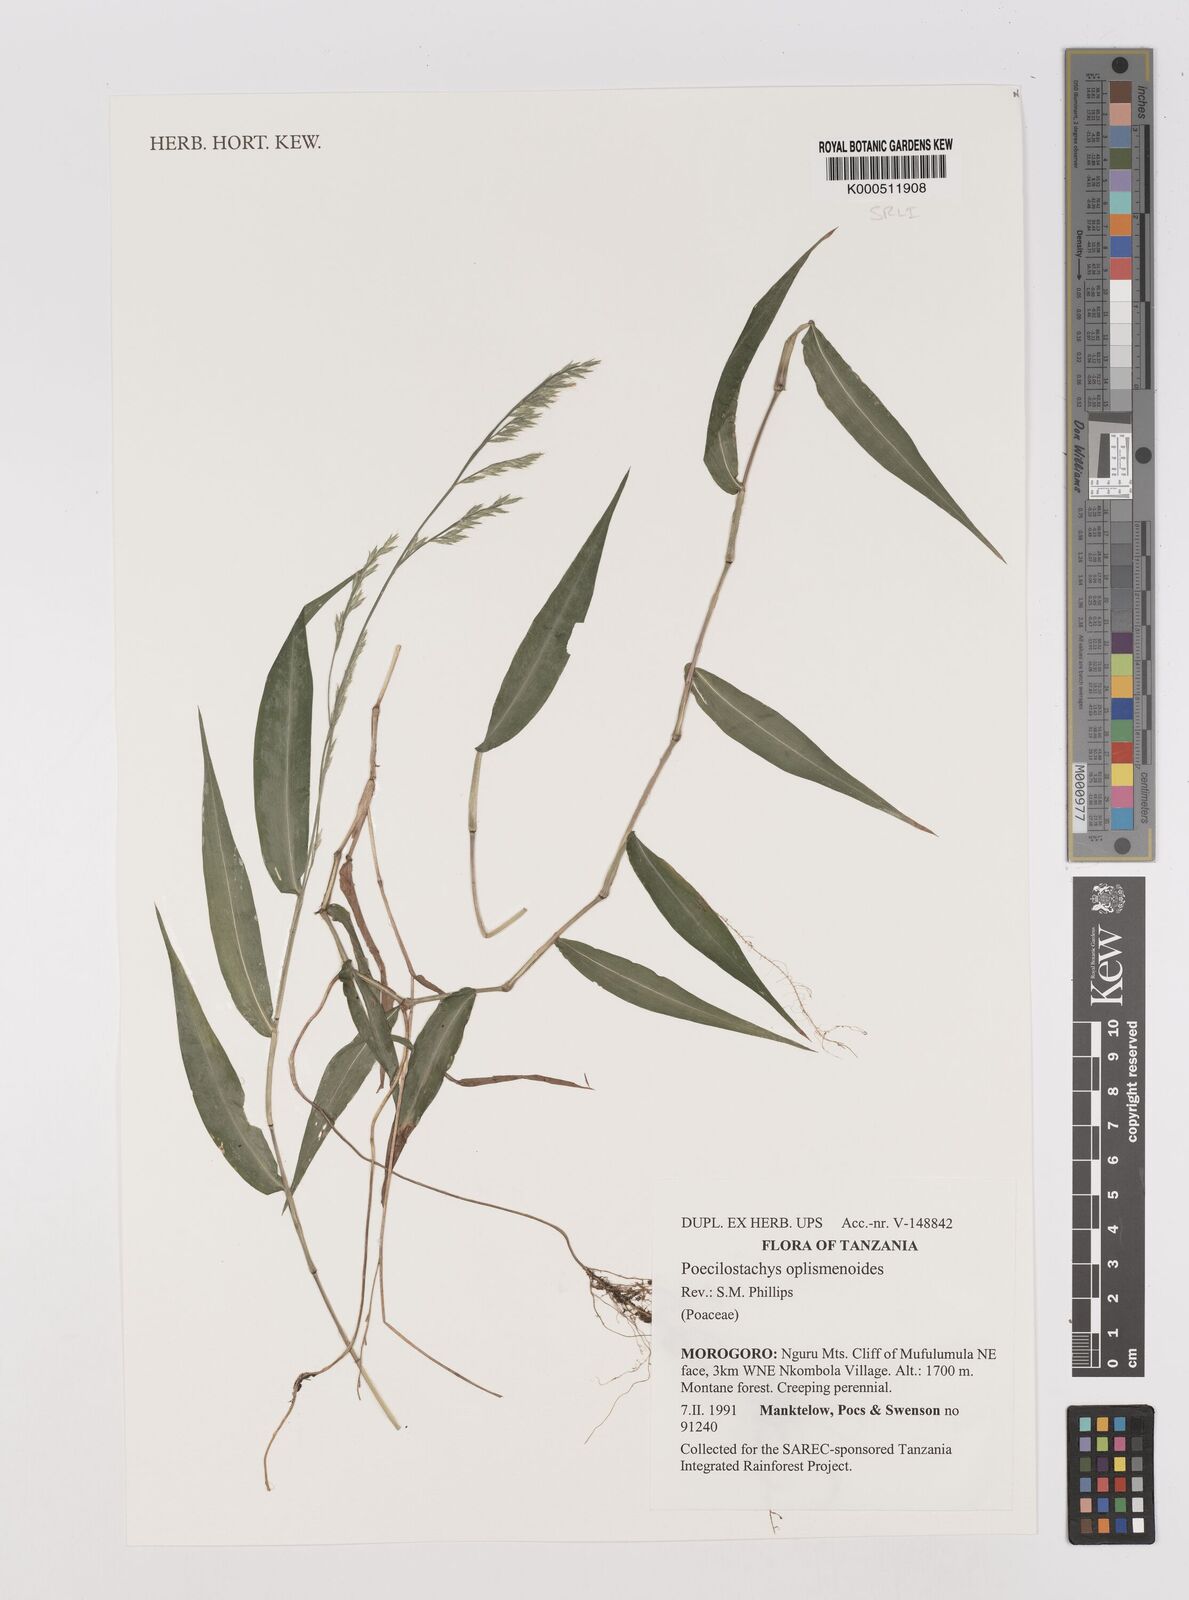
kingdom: Plantae
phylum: Tracheophyta
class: Liliopsida
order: Poales
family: Poaceae
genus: Poecilostachys
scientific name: Poecilostachys oplismenoides
